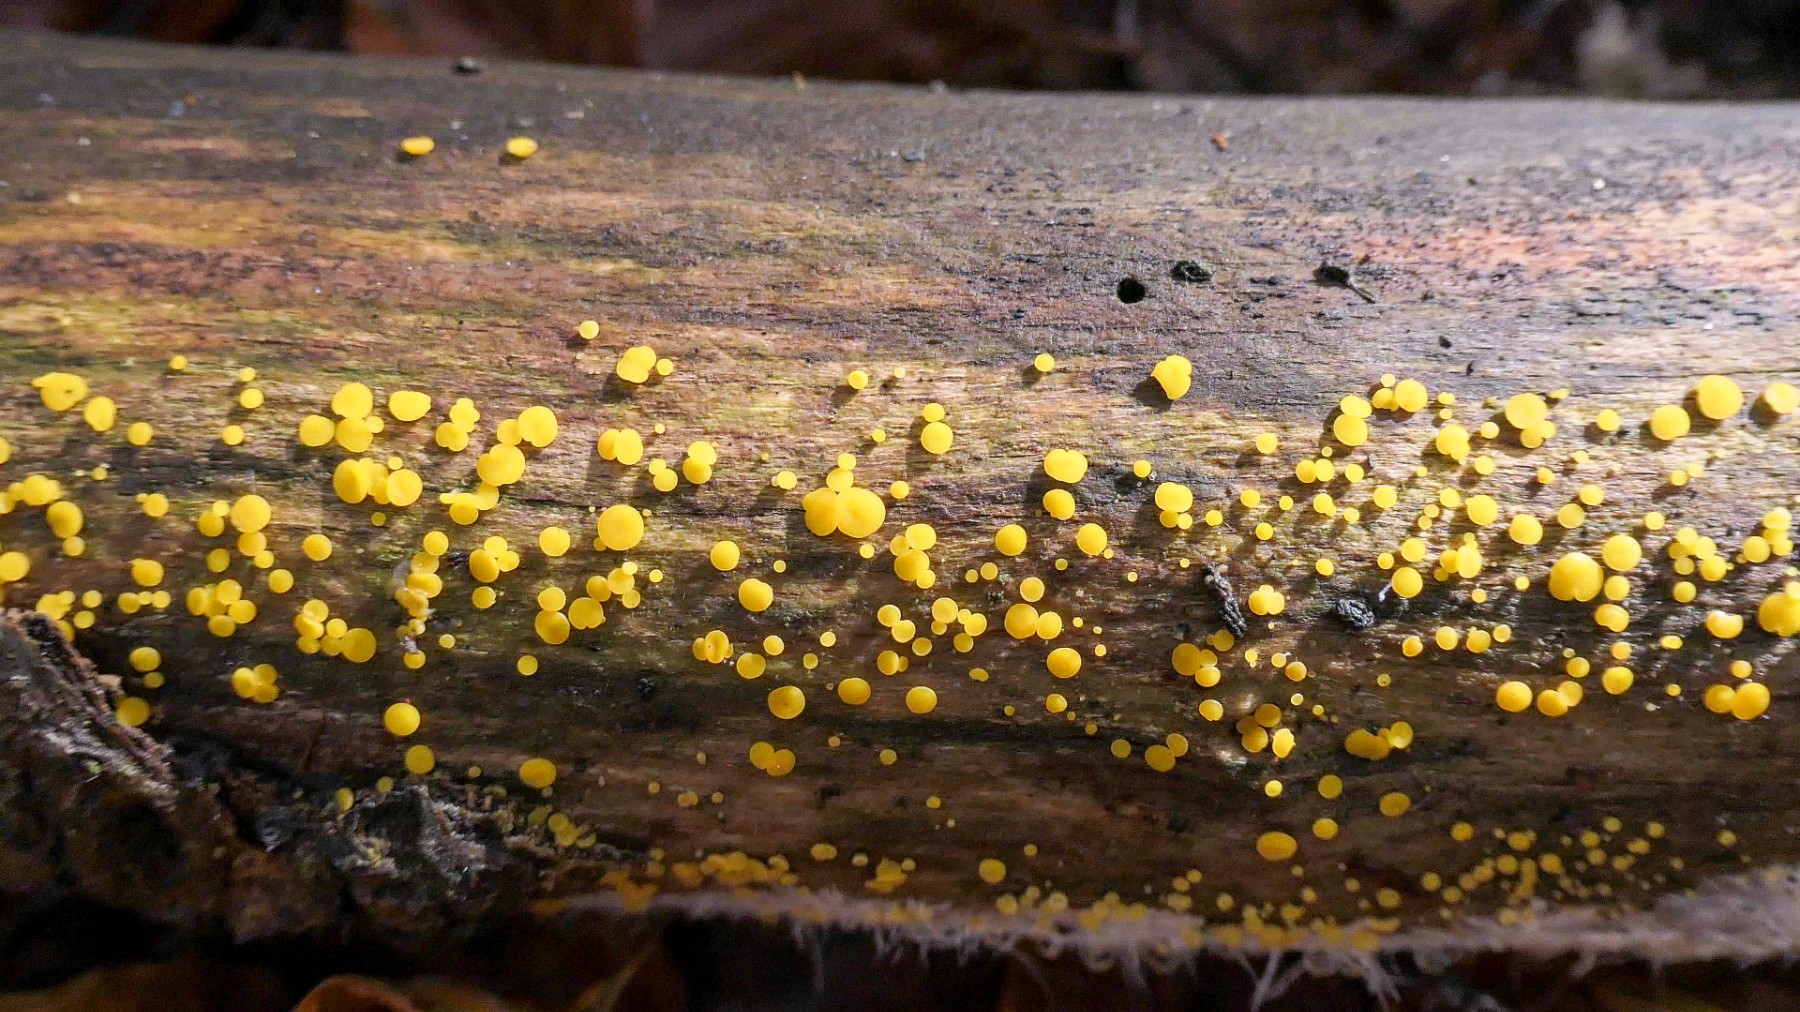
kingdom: Fungi
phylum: Ascomycota
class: Leotiomycetes
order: Helotiales
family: Pezizellaceae
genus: Calycina
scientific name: Calycina citrina
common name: almindelig gulskive
